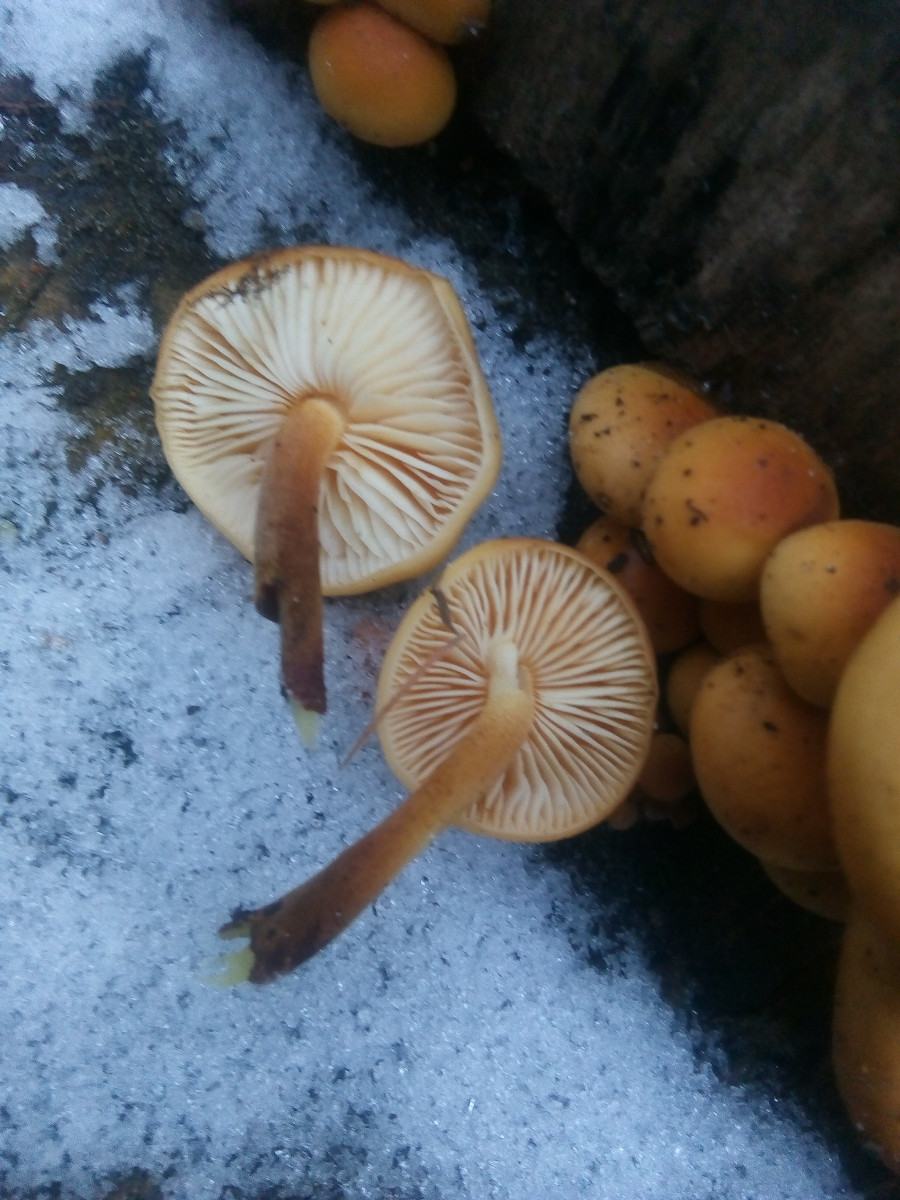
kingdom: Fungi
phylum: Basidiomycota
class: Agaricomycetes
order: Agaricales
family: Physalacriaceae
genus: Flammulina
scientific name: Flammulina velutipes
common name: gul fløjlsfod
